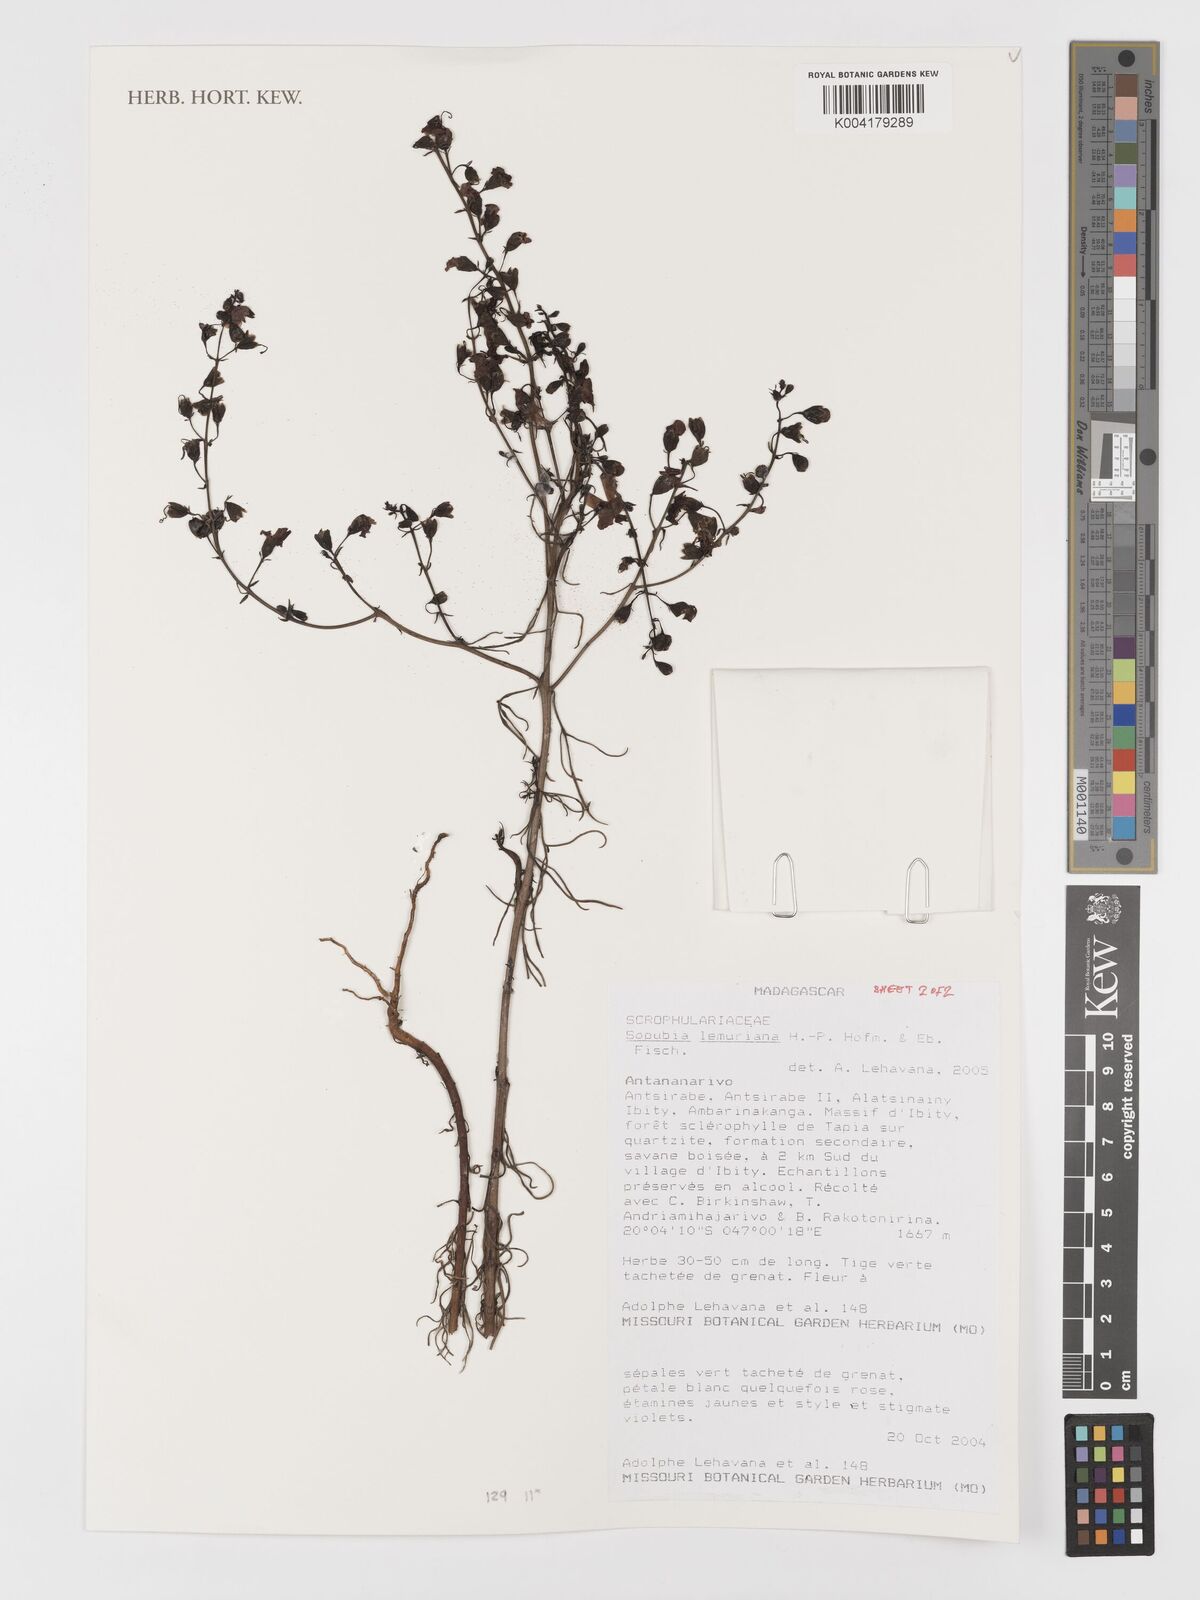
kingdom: Plantae
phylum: Tracheophyta
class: Magnoliopsida
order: Lamiales
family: Orobanchaceae
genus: Sopubia
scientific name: Sopubia lemuriana
